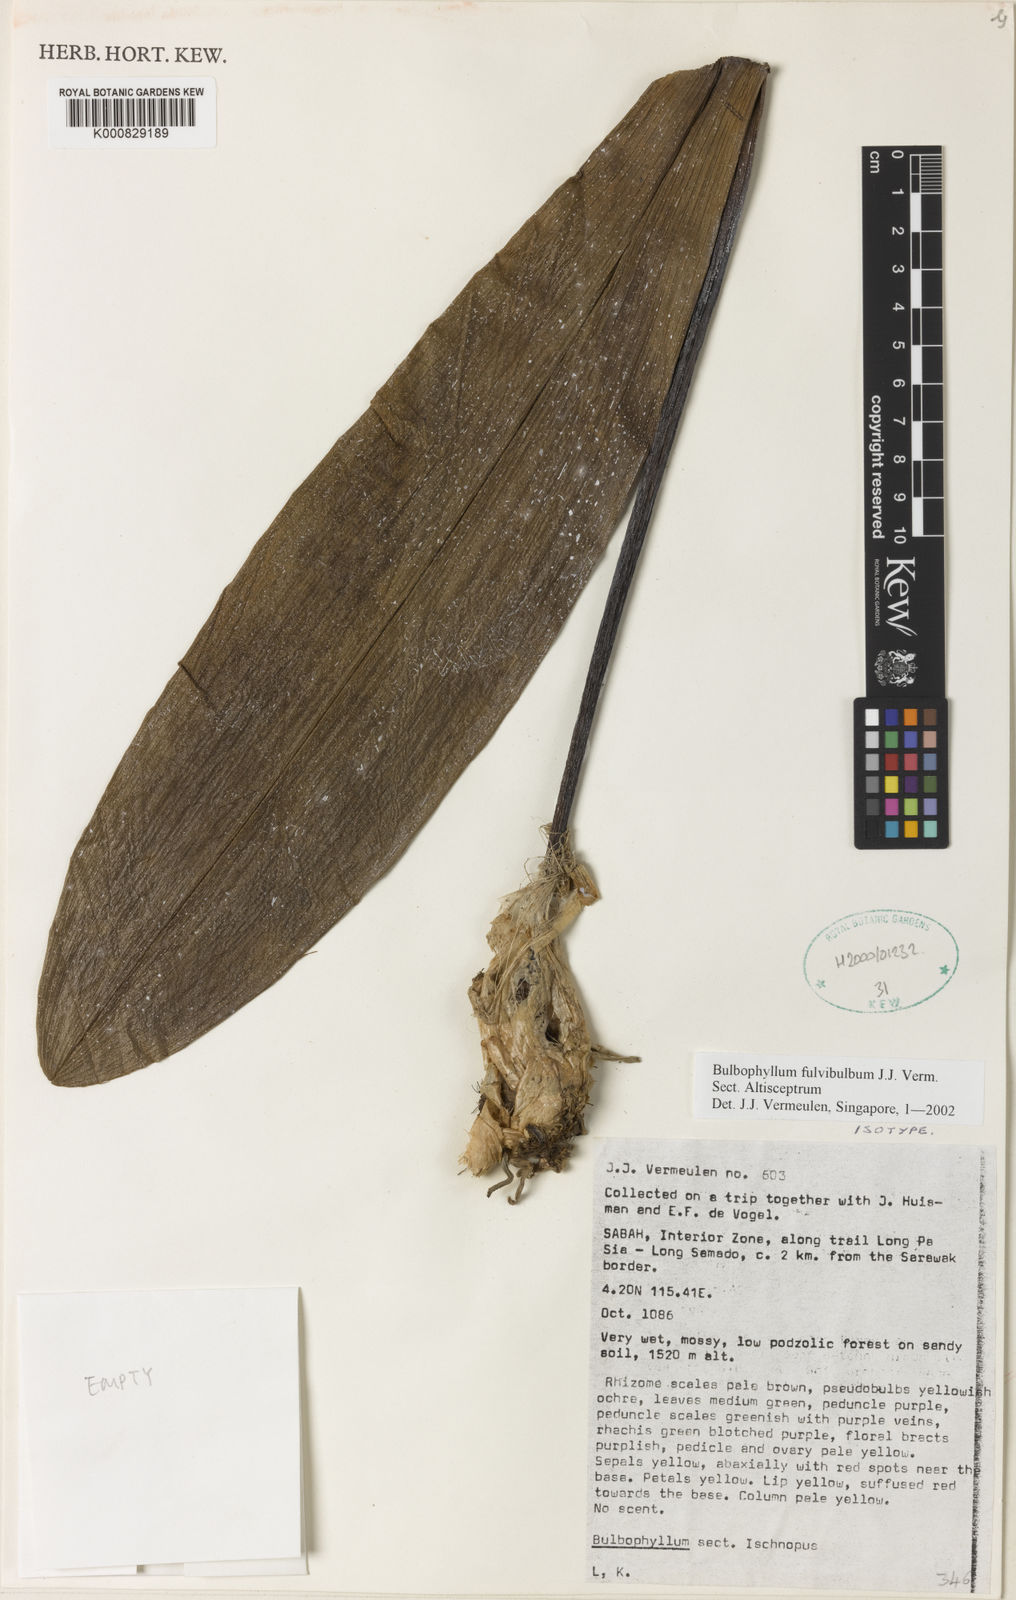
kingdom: Plantae
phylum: Tracheophyta
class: Liliopsida
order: Asparagales
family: Orchidaceae
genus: Bulbophyllum
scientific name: Bulbophyllum fulvibulbum
